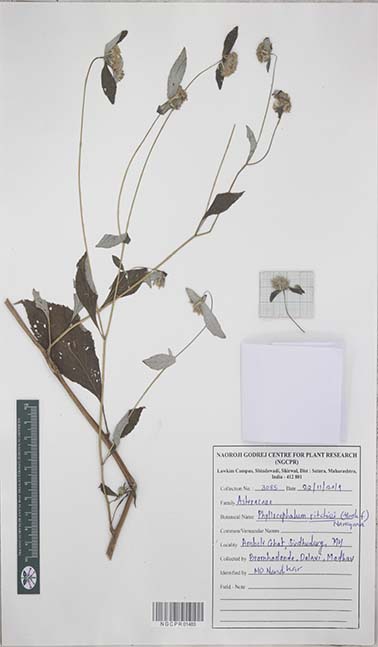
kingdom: Plantae
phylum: Tracheophyta
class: Magnoliopsida
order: Asterales
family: Asteraceae
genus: Phyllocephalum
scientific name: Phyllocephalum scabridum
